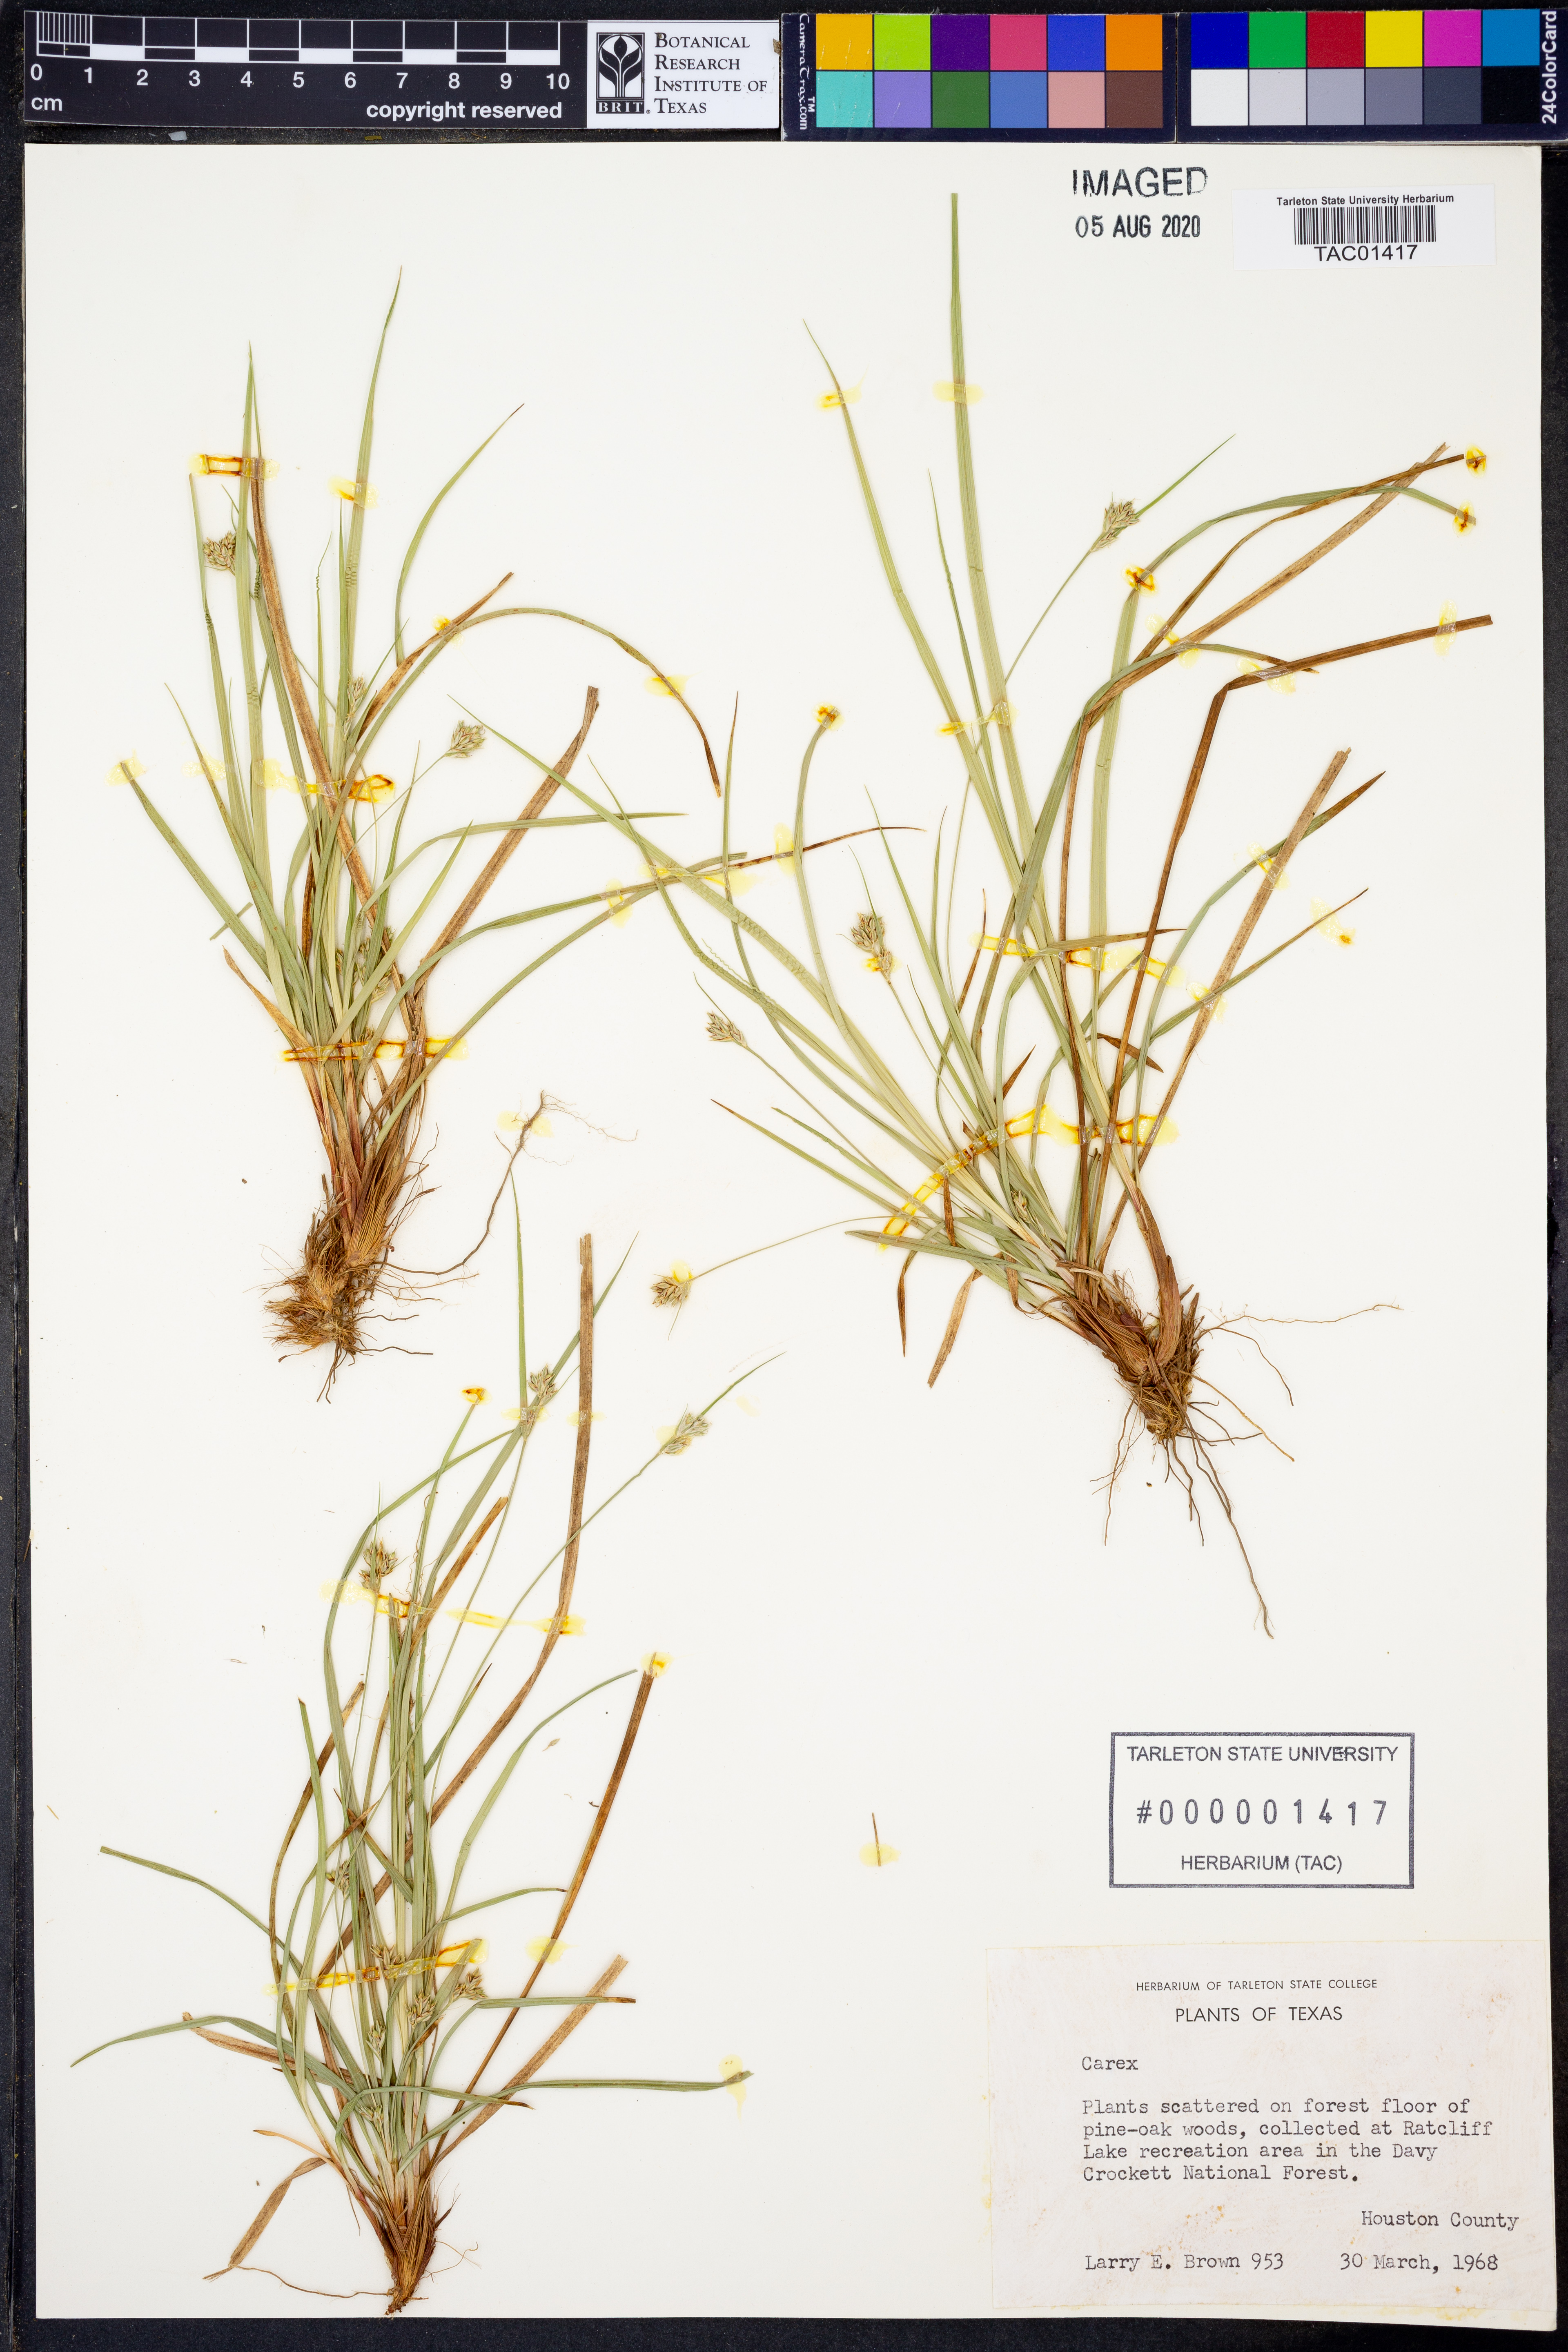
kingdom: Plantae
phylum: Tracheophyta
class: Liliopsida
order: Poales
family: Cyperaceae
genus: Carex
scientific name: Carex
